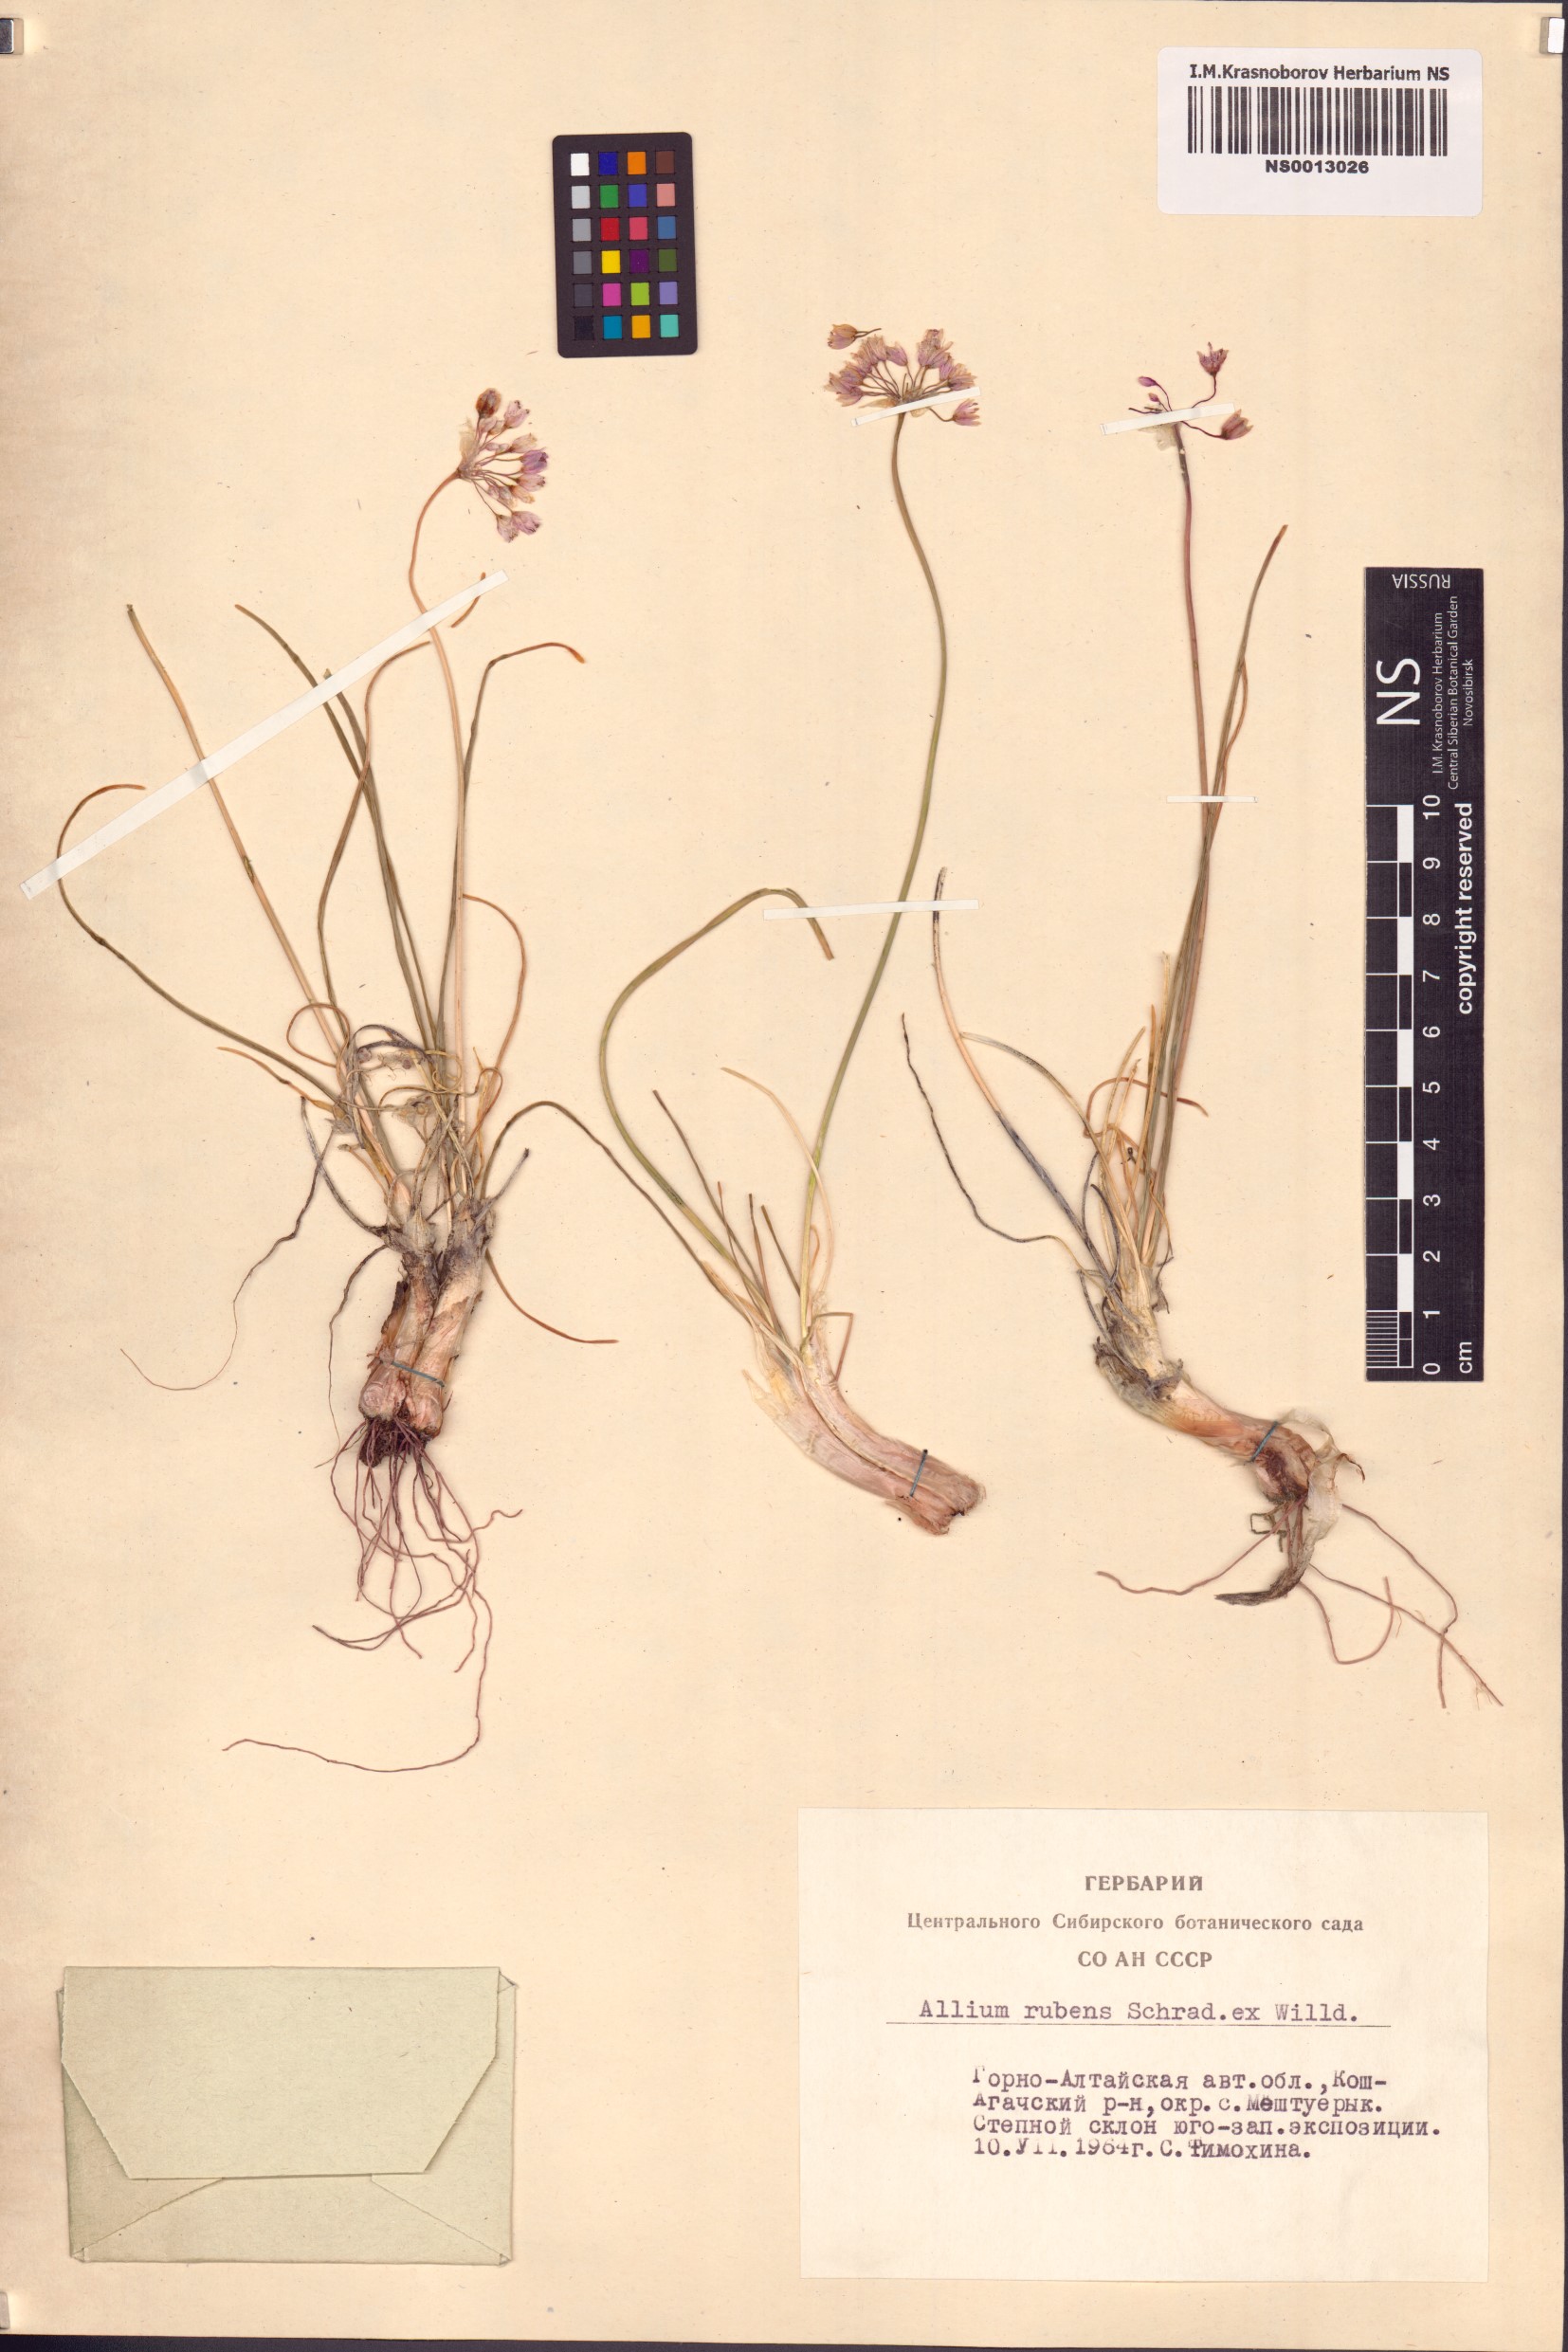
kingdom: Plantae
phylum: Tracheophyta
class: Liliopsida
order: Asparagales
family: Amaryllidaceae
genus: Allium
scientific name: Allium rubens
